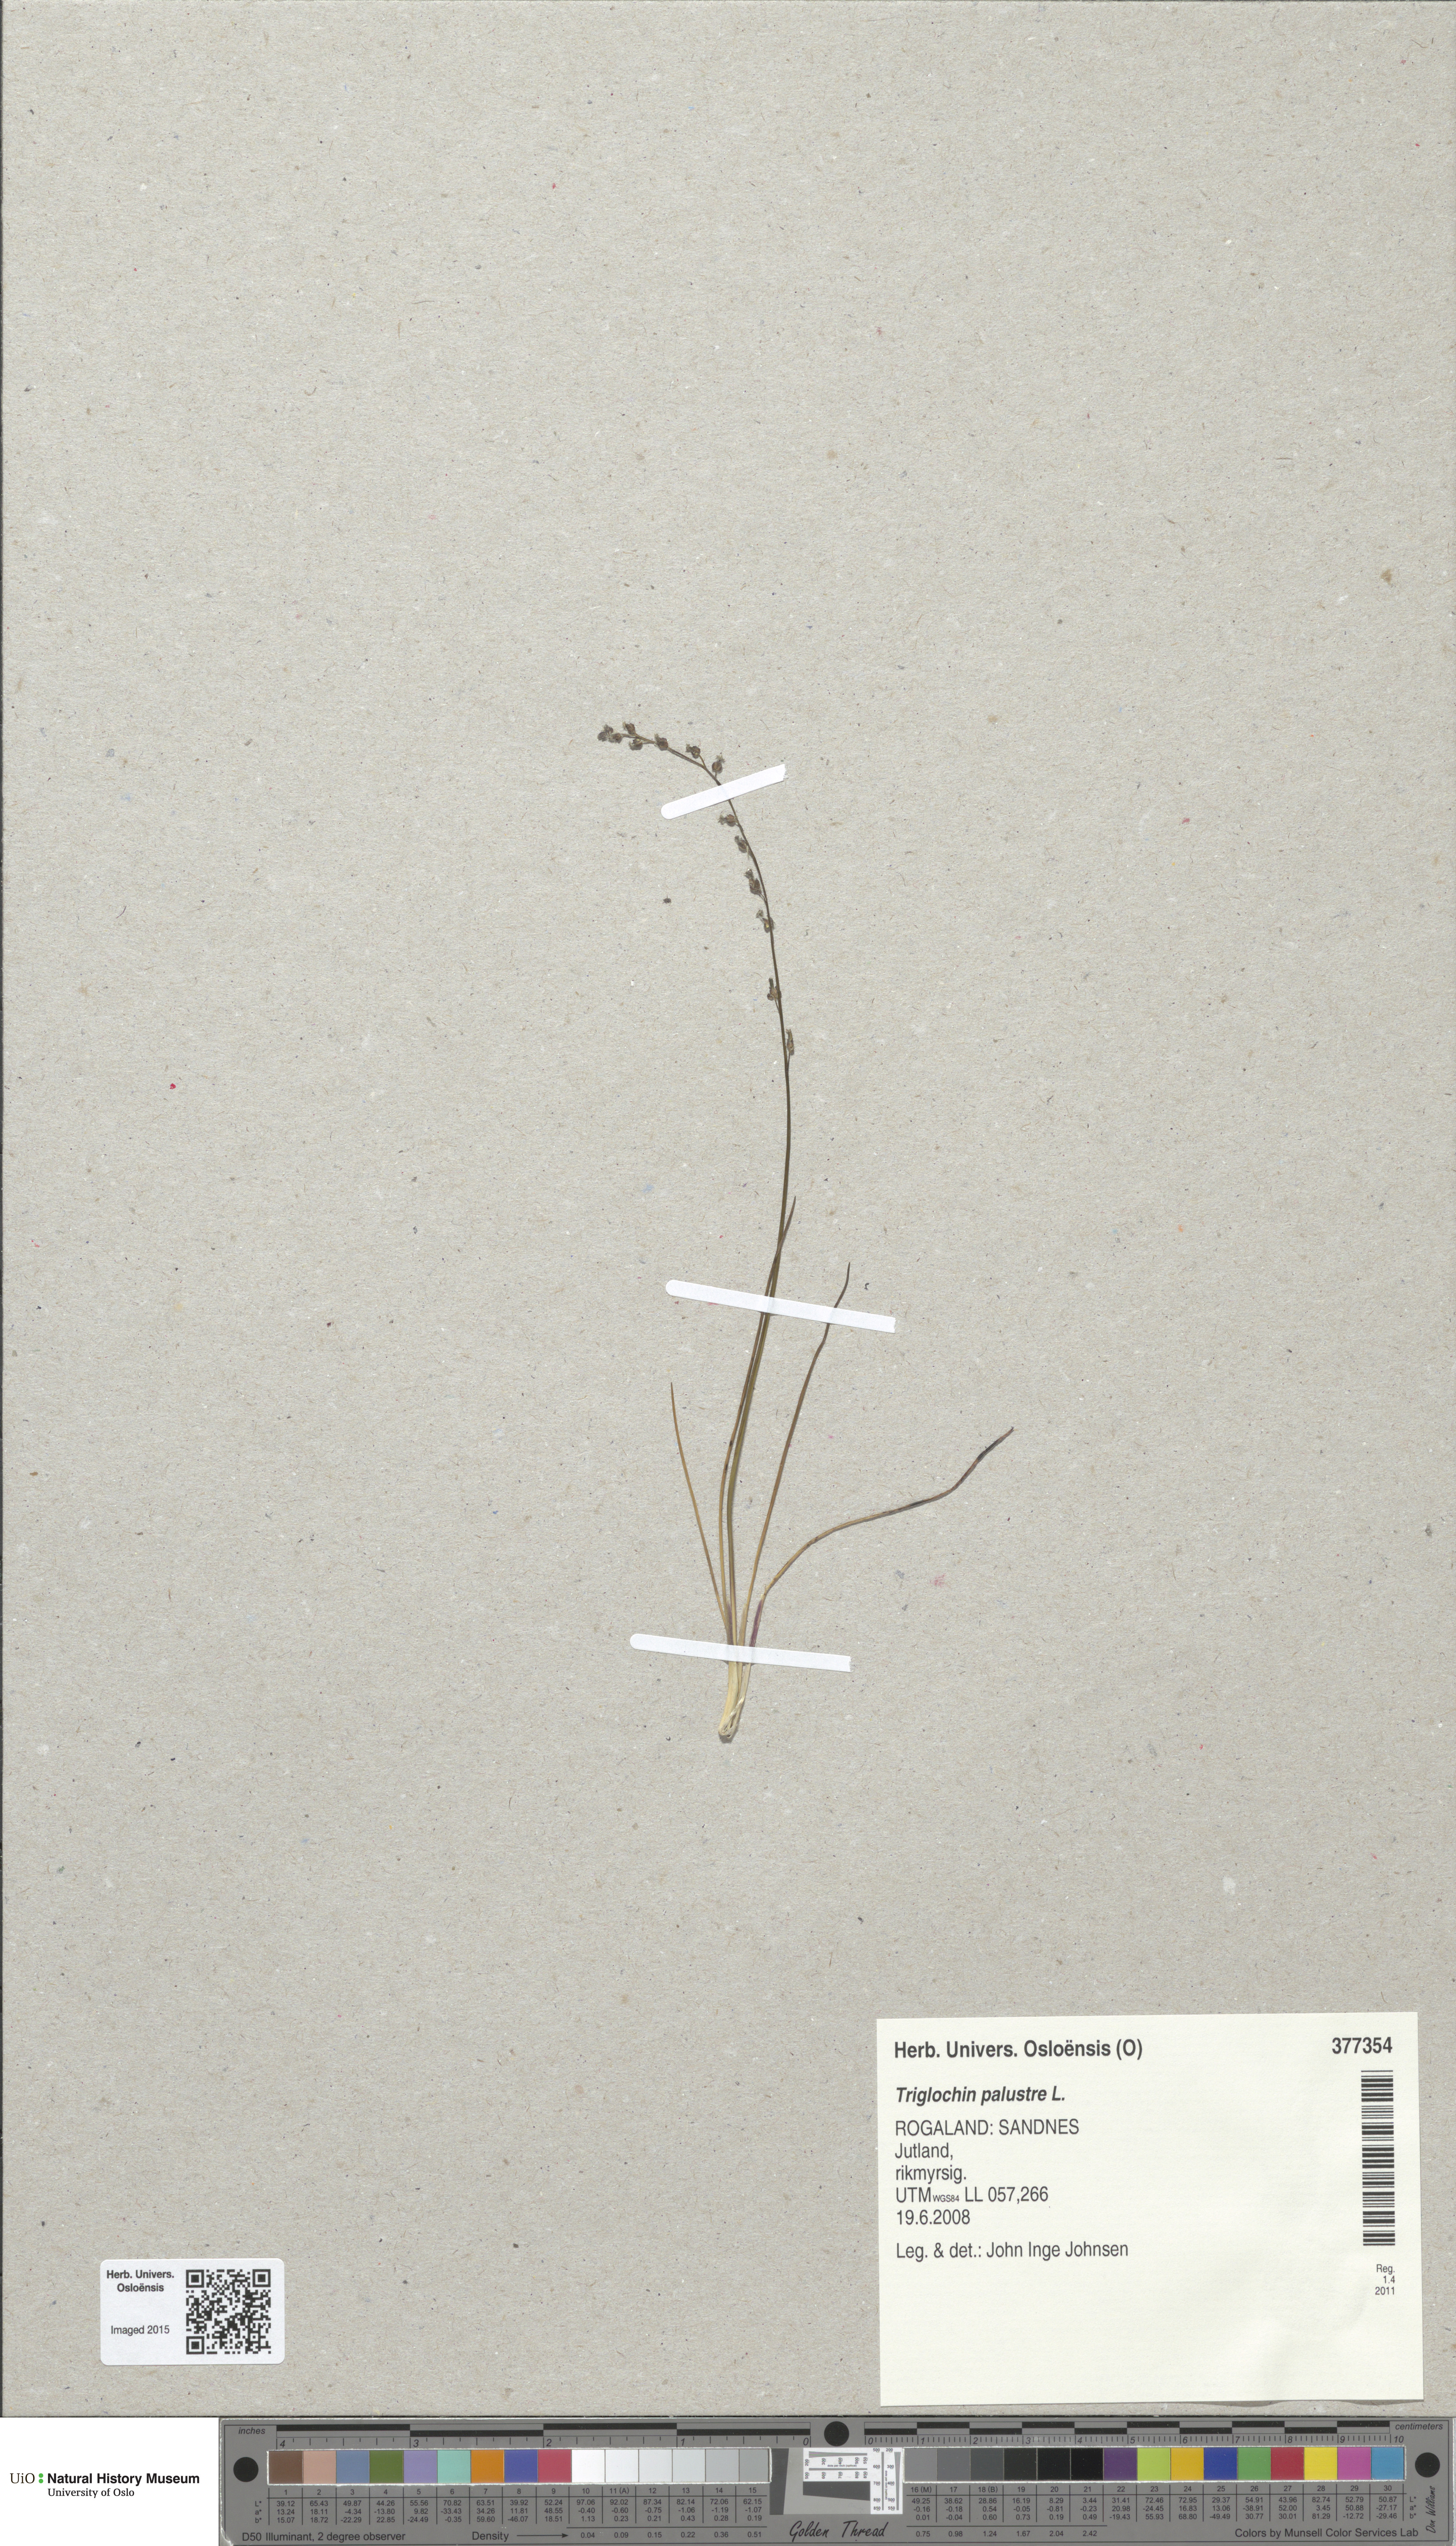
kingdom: Plantae
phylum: Tracheophyta
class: Liliopsida
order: Alismatales
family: Juncaginaceae
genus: Triglochin
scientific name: Triglochin palustris
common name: Marsh arrowgrass
